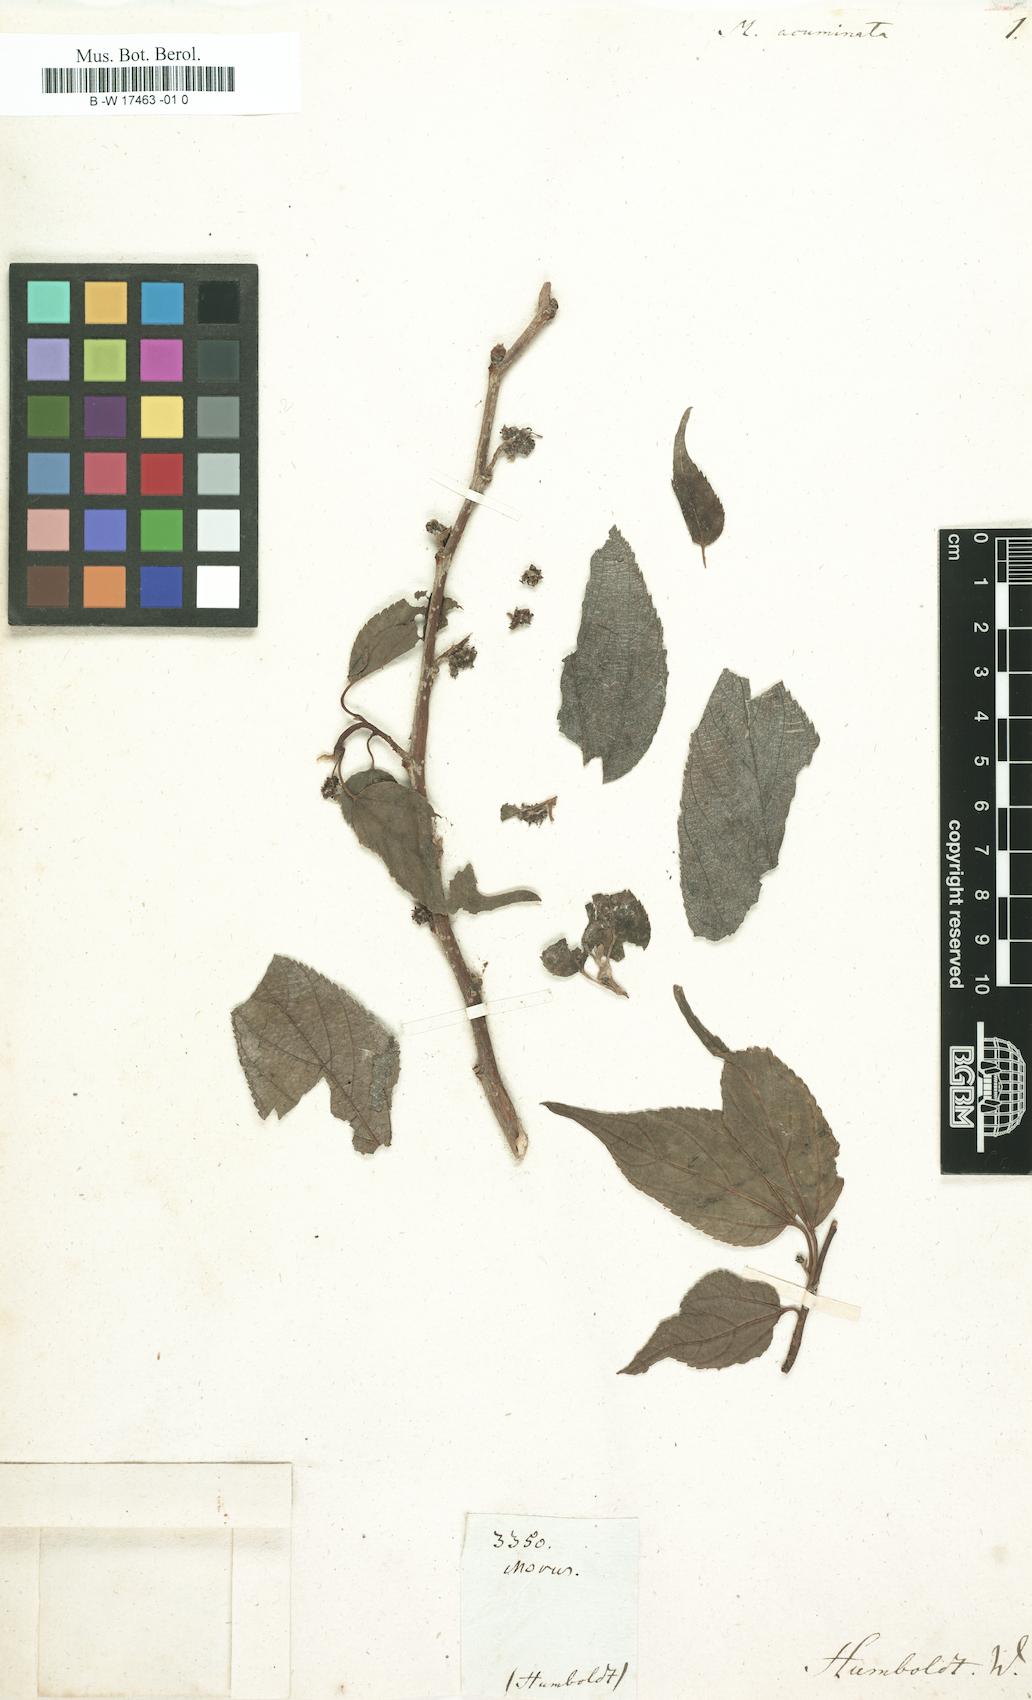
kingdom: Plantae
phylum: Tracheophyta
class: Magnoliopsida
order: Rosales
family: Moraceae
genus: Morus
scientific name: Morus
